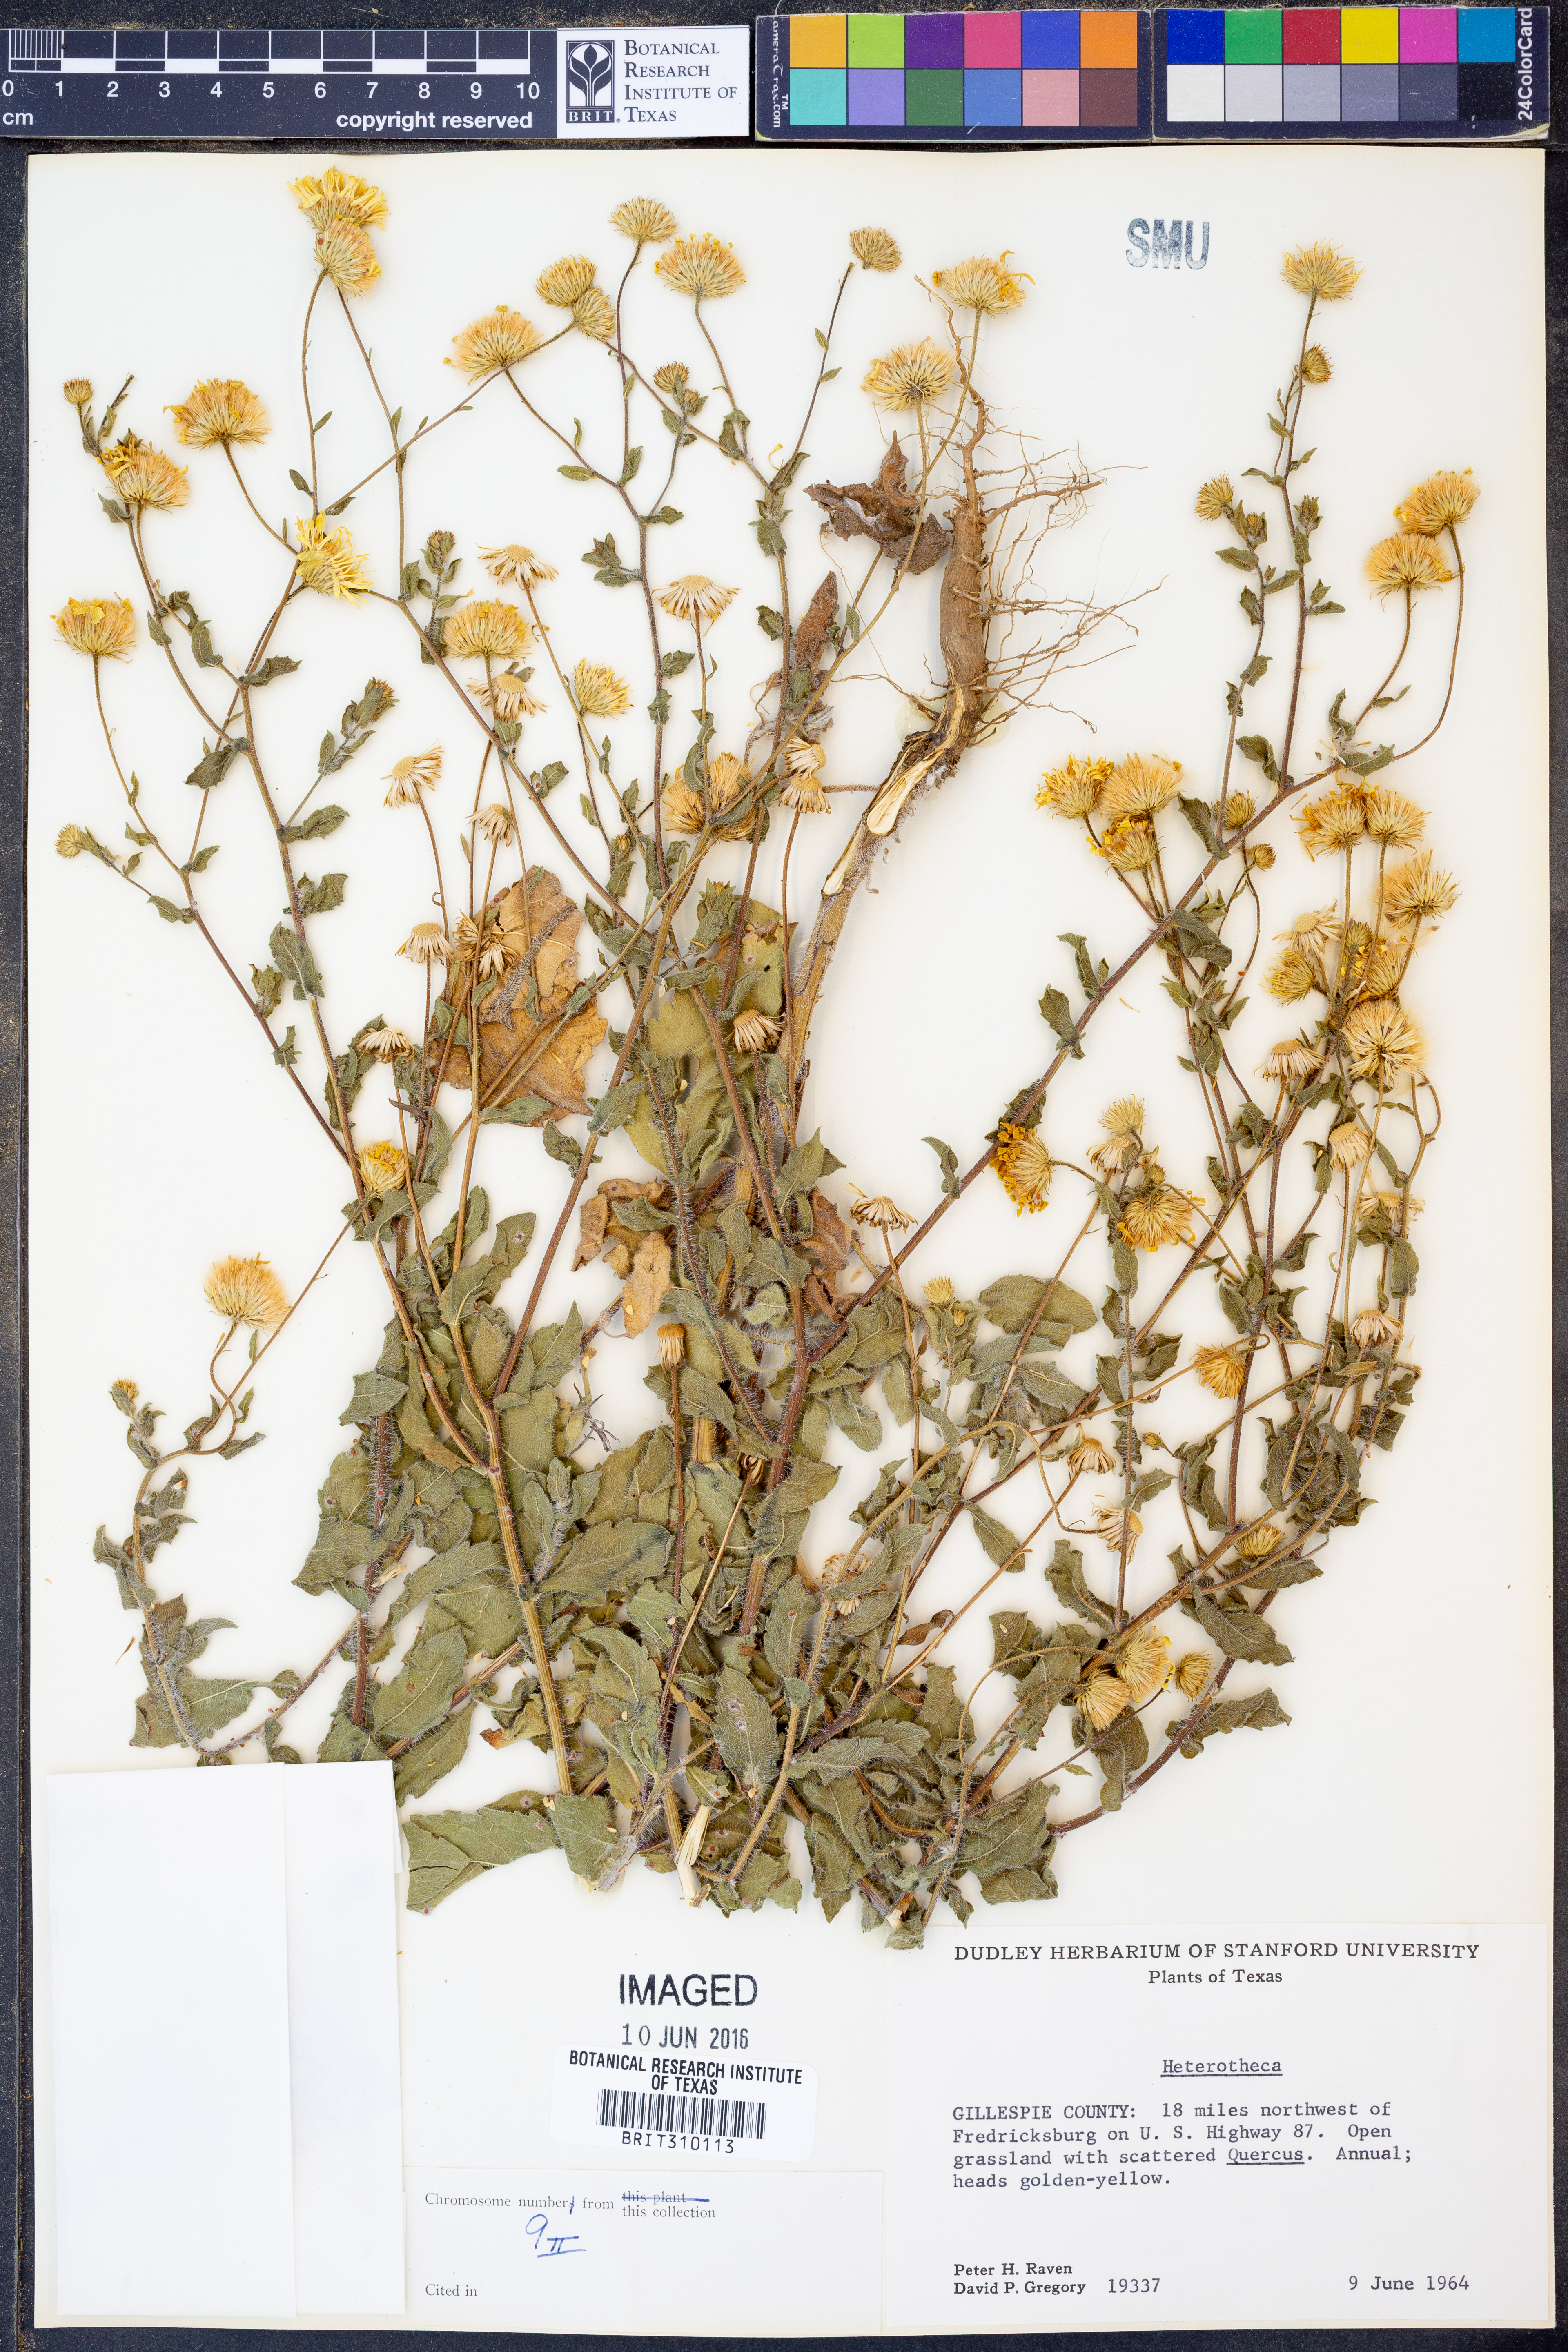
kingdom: Plantae
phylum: Tracheophyta
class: Magnoliopsida
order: Asterales
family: Asteraceae
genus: Heterotheca
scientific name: Heterotheca
